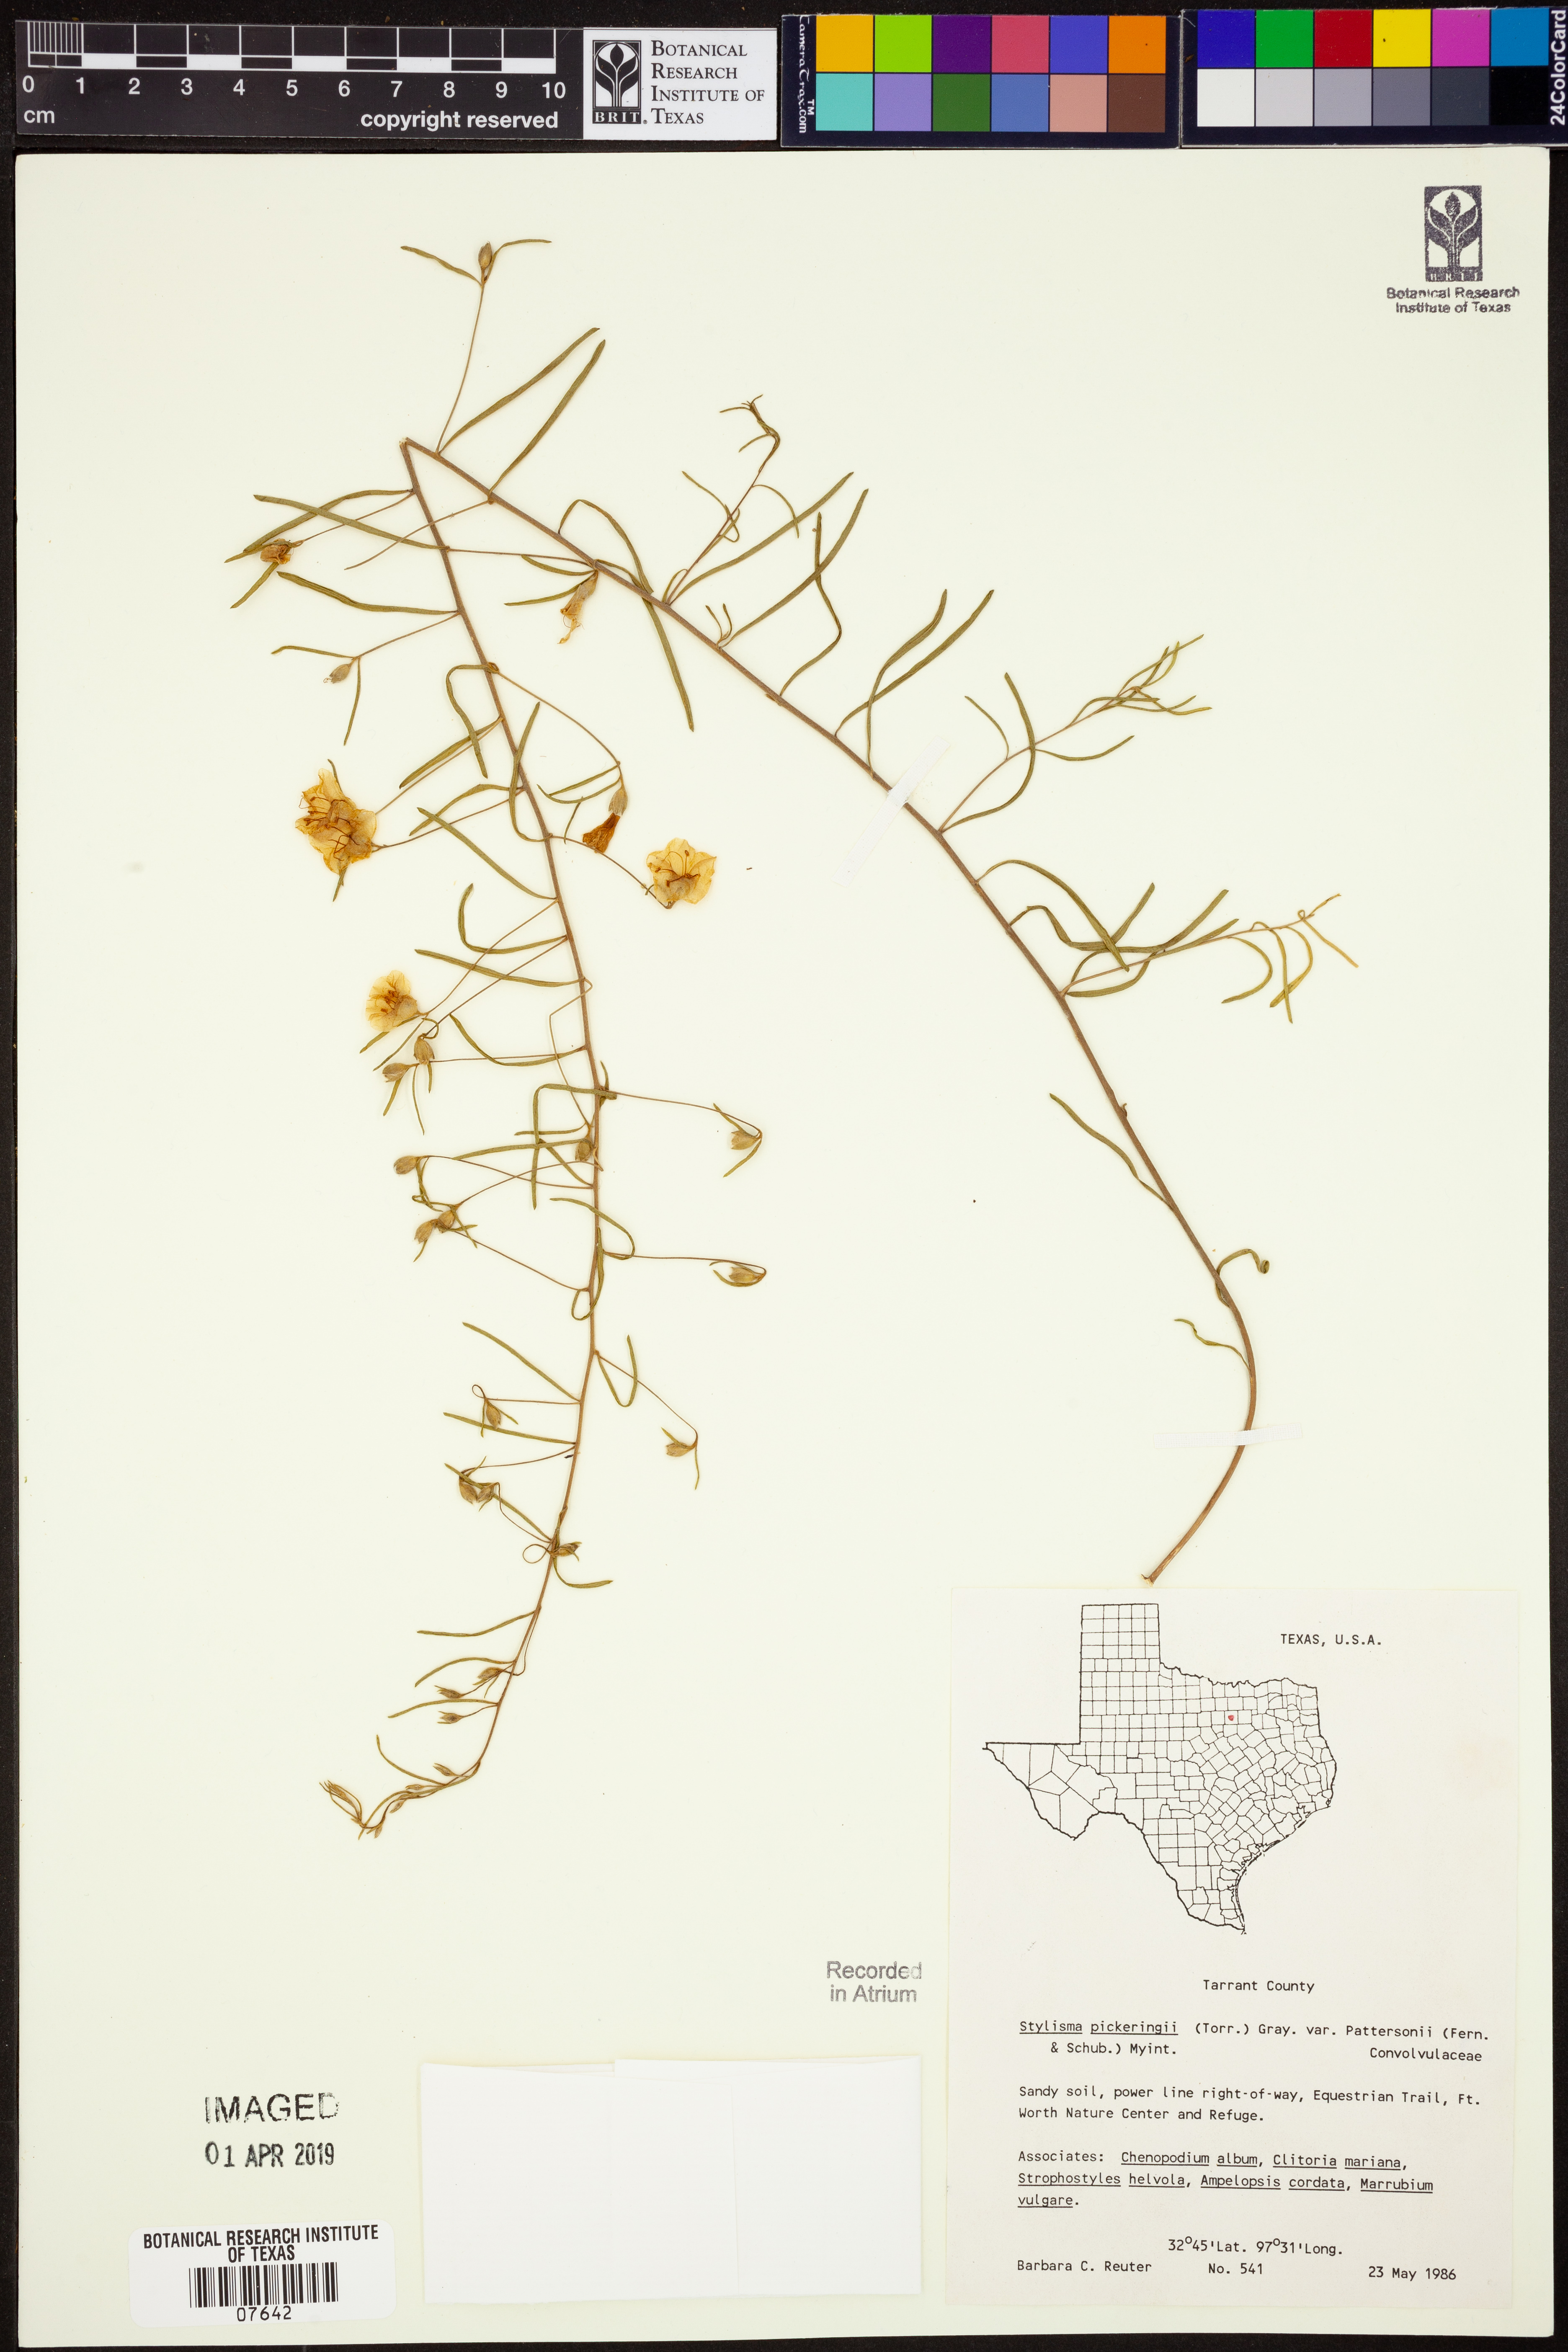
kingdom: Plantae
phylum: Tracheophyta
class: Magnoliopsida
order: Solanales
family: Convolvulaceae
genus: Stylisma
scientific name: Stylisma pickeringii
